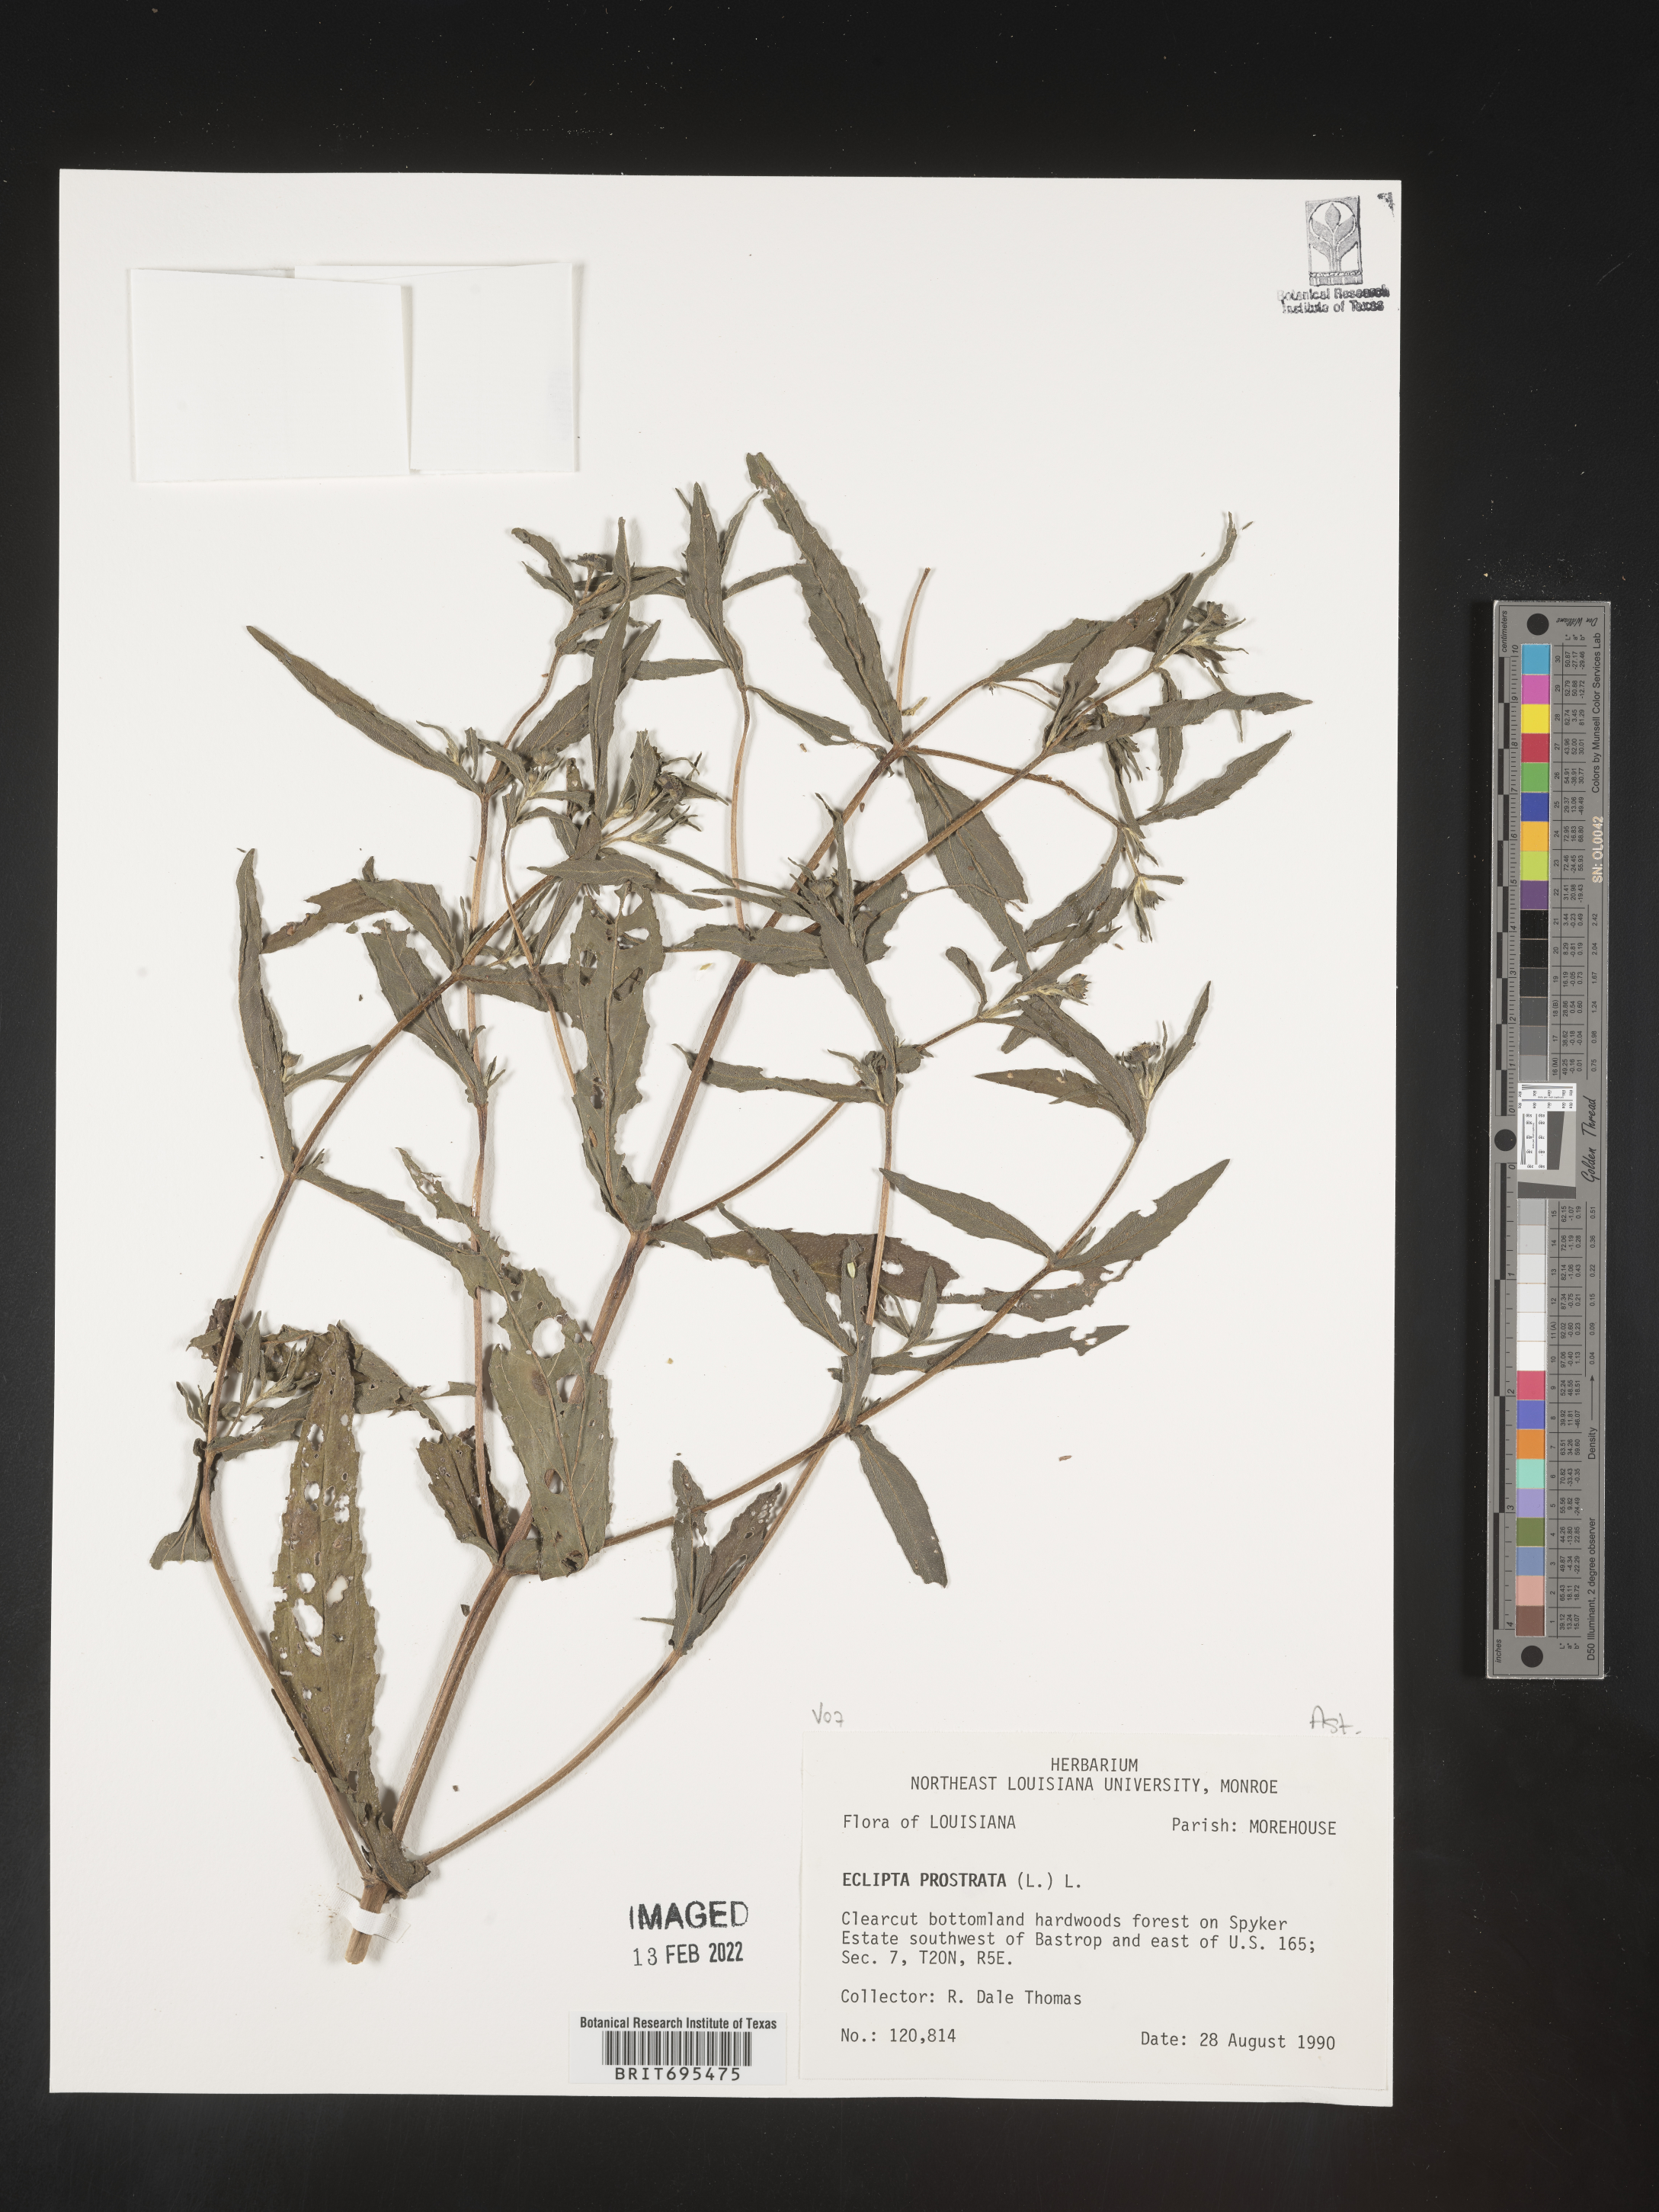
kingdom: Plantae
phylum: Tracheophyta
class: Magnoliopsida
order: Asterales
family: Asteraceae
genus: Eclipta
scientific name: Eclipta prostrata
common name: False daisy
